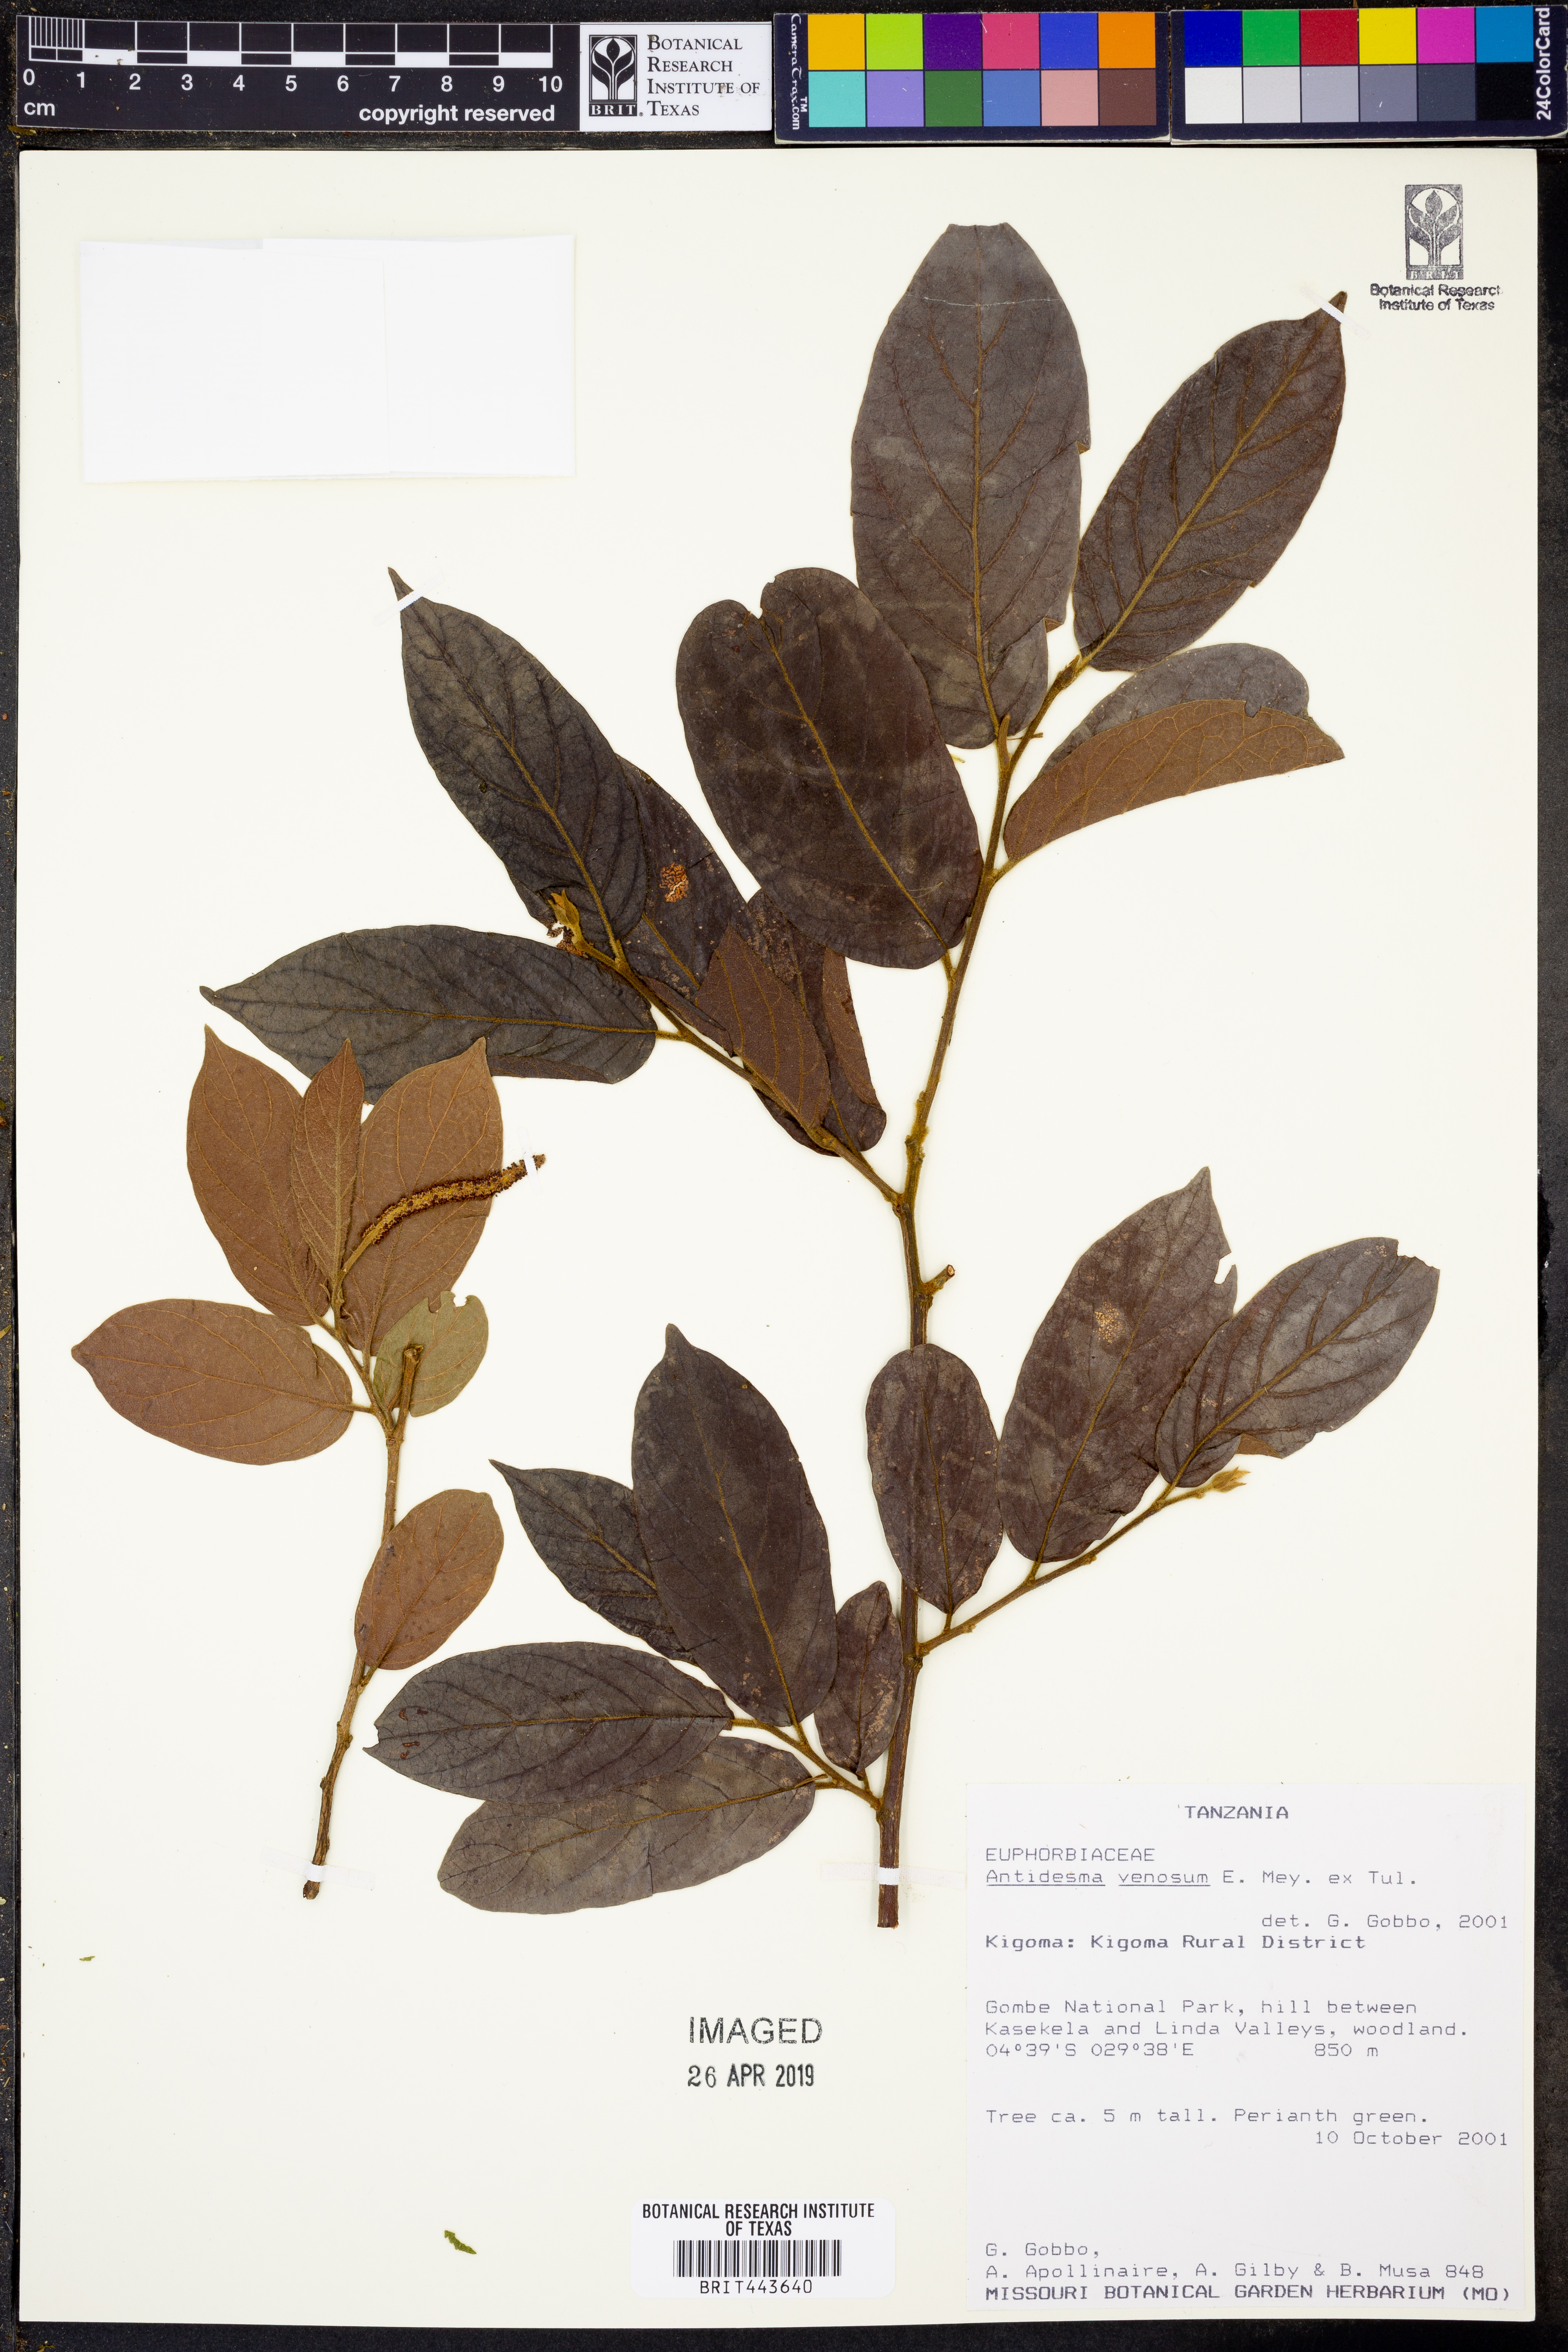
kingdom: Plantae
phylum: Tracheophyta
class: Magnoliopsida
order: Malpighiales
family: Phyllanthaceae
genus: Antidesma
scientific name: Antidesma venosum
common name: Tassel-berry
